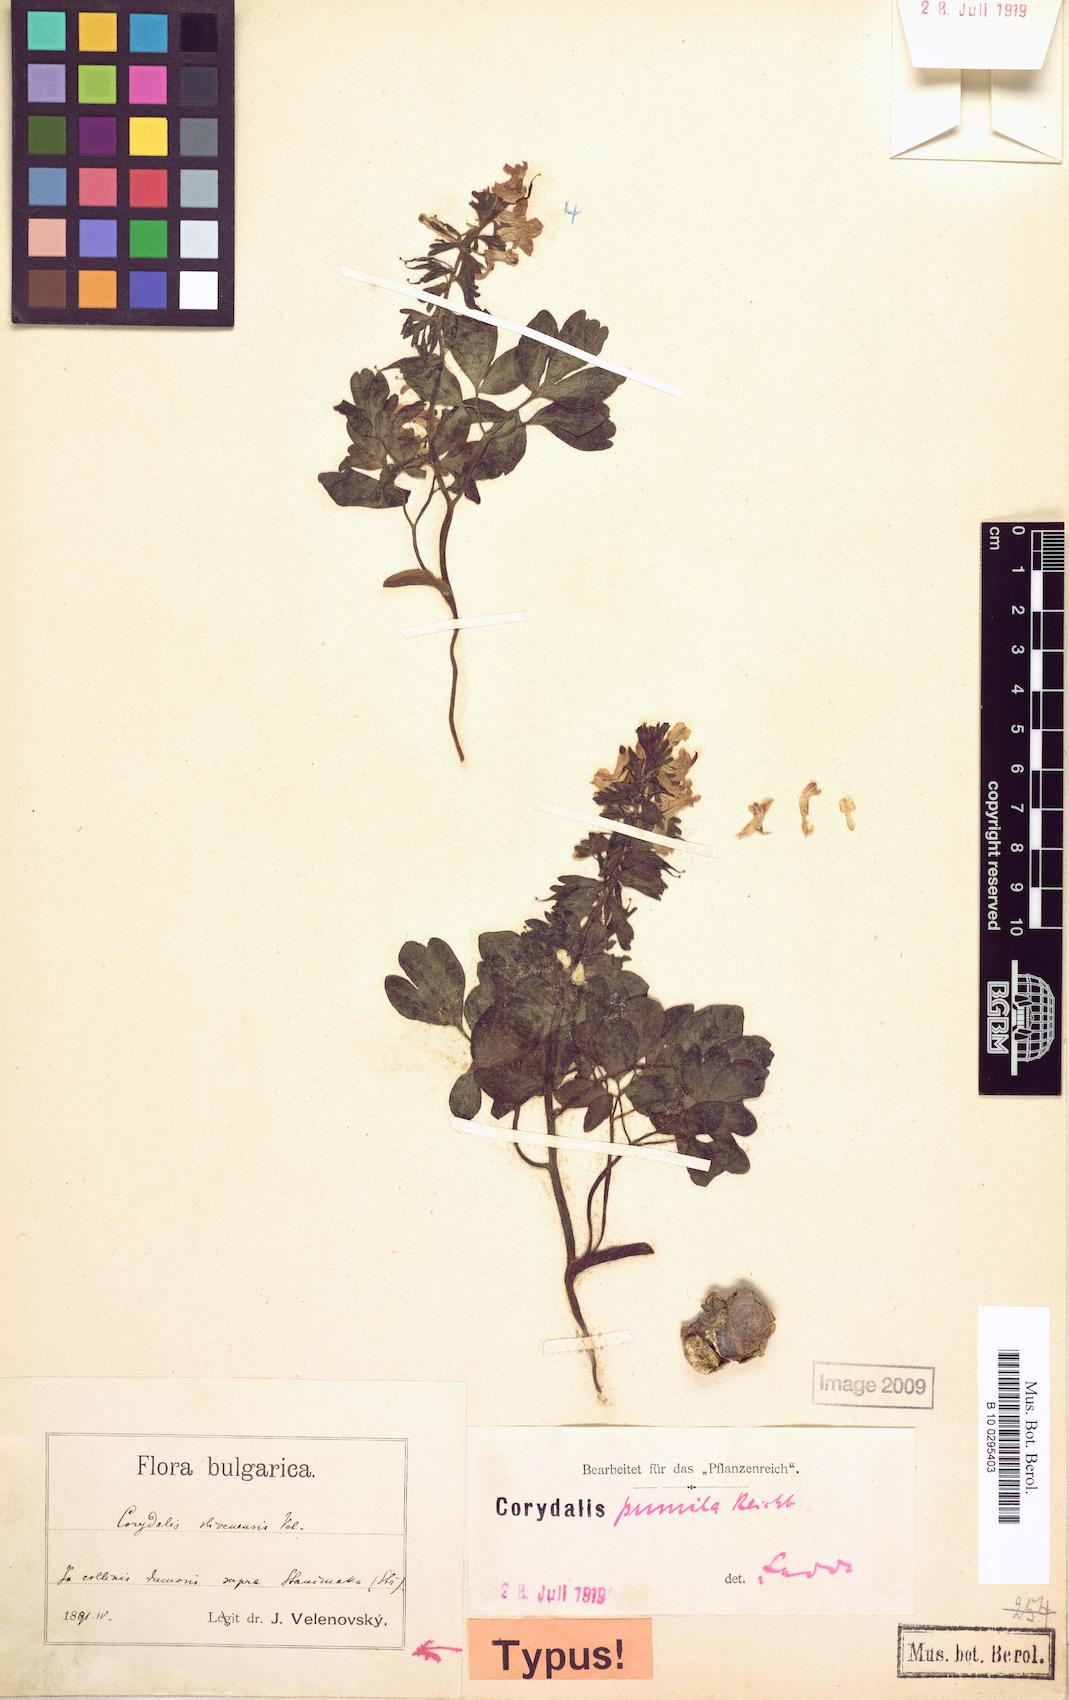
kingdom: Plantae
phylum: Tracheophyta
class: Magnoliopsida
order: Ranunculales
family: Papaveraceae
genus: Corydalis
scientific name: Corydalis pumila
